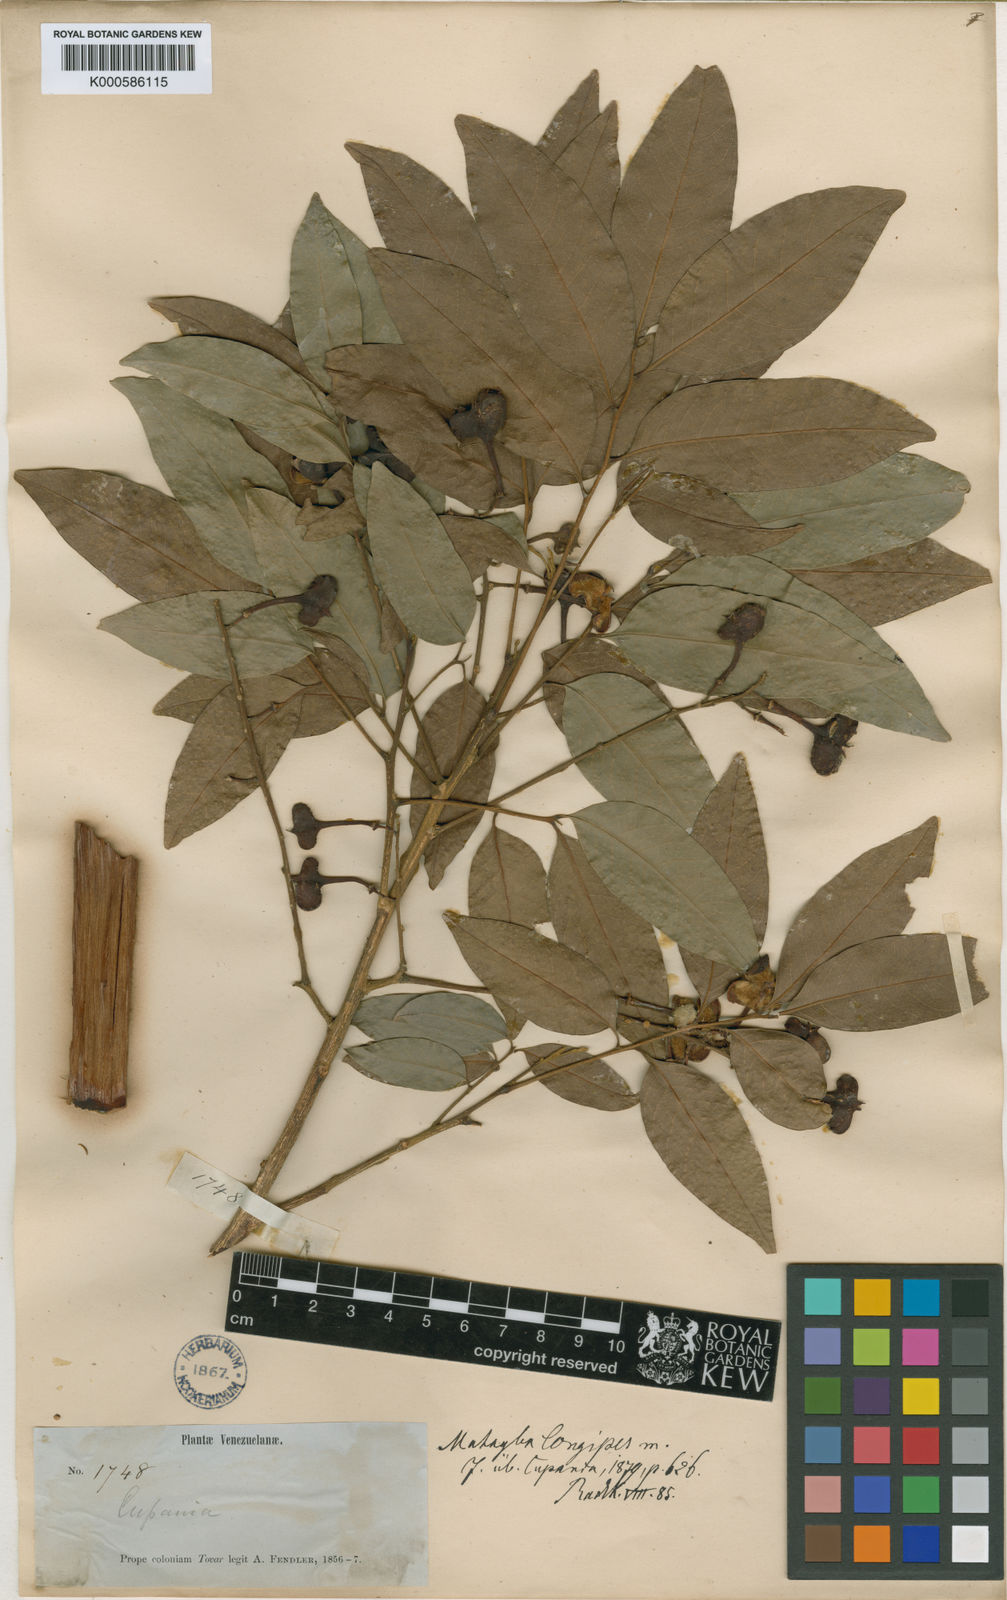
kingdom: Plantae
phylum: Tracheophyta
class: Magnoliopsida
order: Sapindales
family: Sapindaceae
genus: Matayba
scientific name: Matayba longipes
